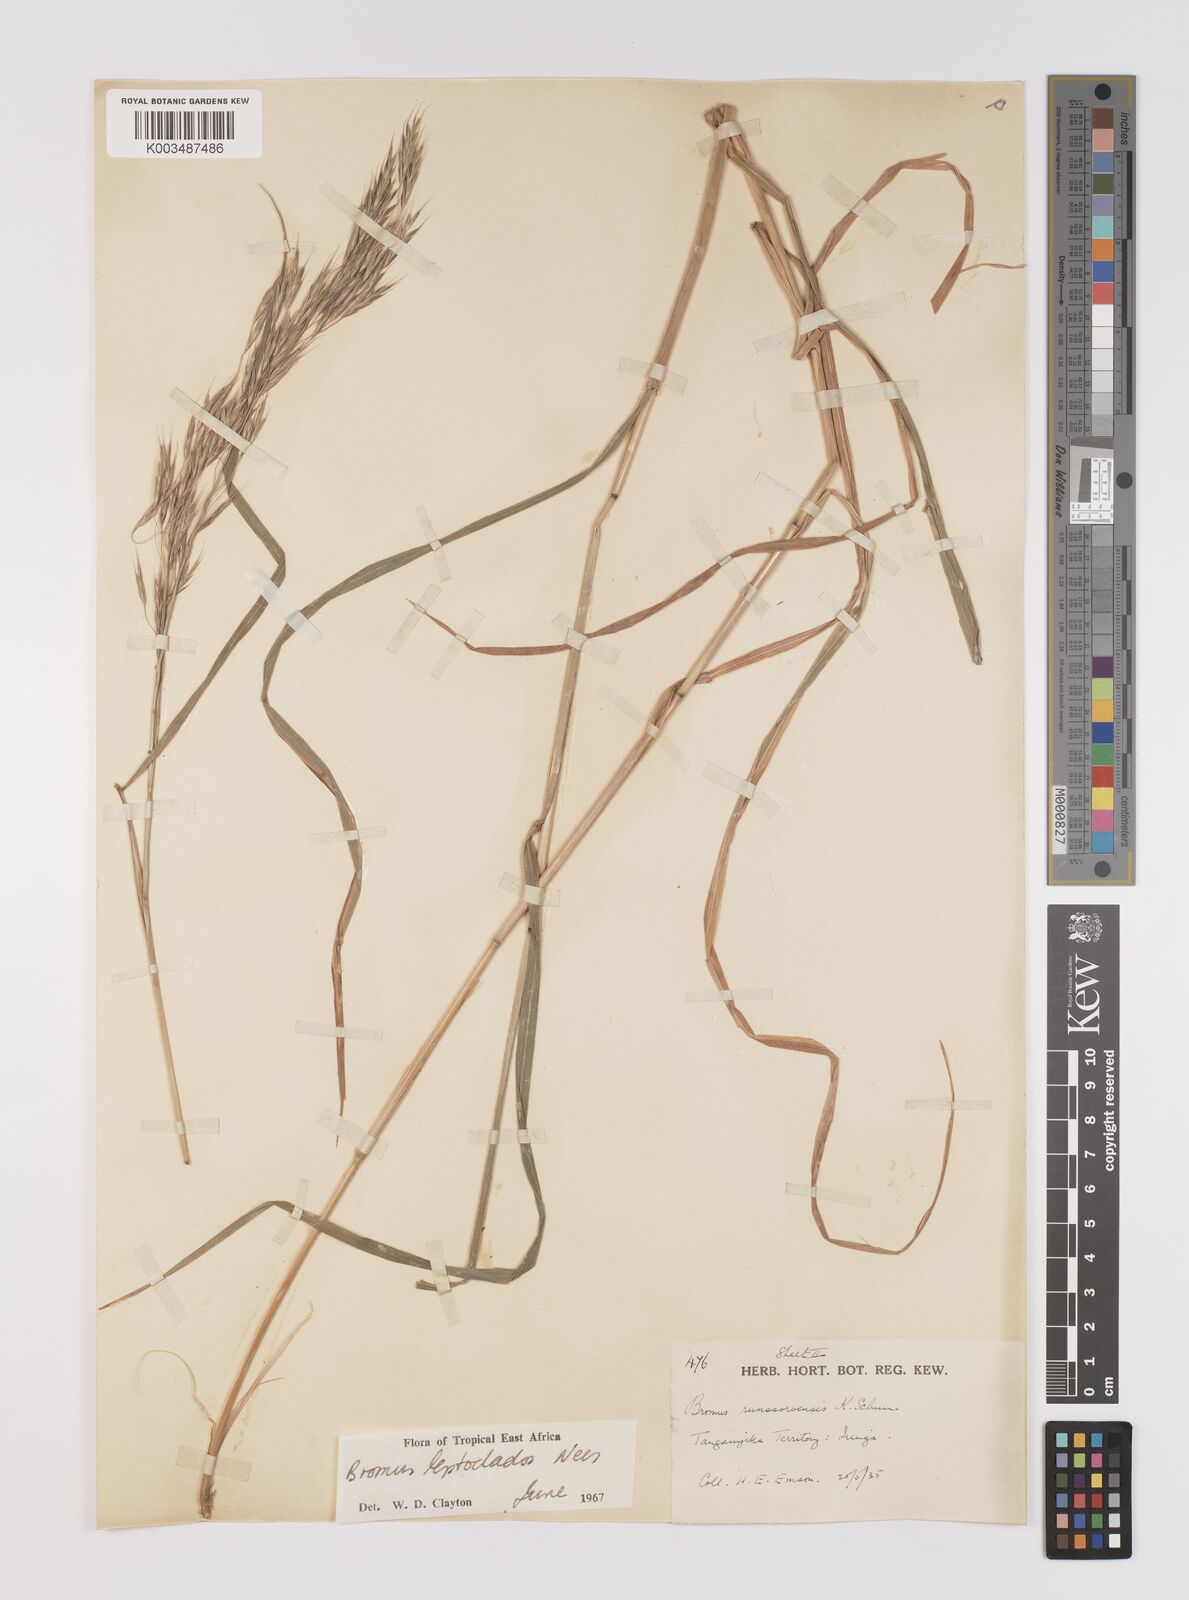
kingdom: Plantae
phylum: Tracheophyta
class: Liliopsida
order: Poales
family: Poaceae
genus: Bromus
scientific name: Bromus leptoclados
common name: Mountain bromegrass
